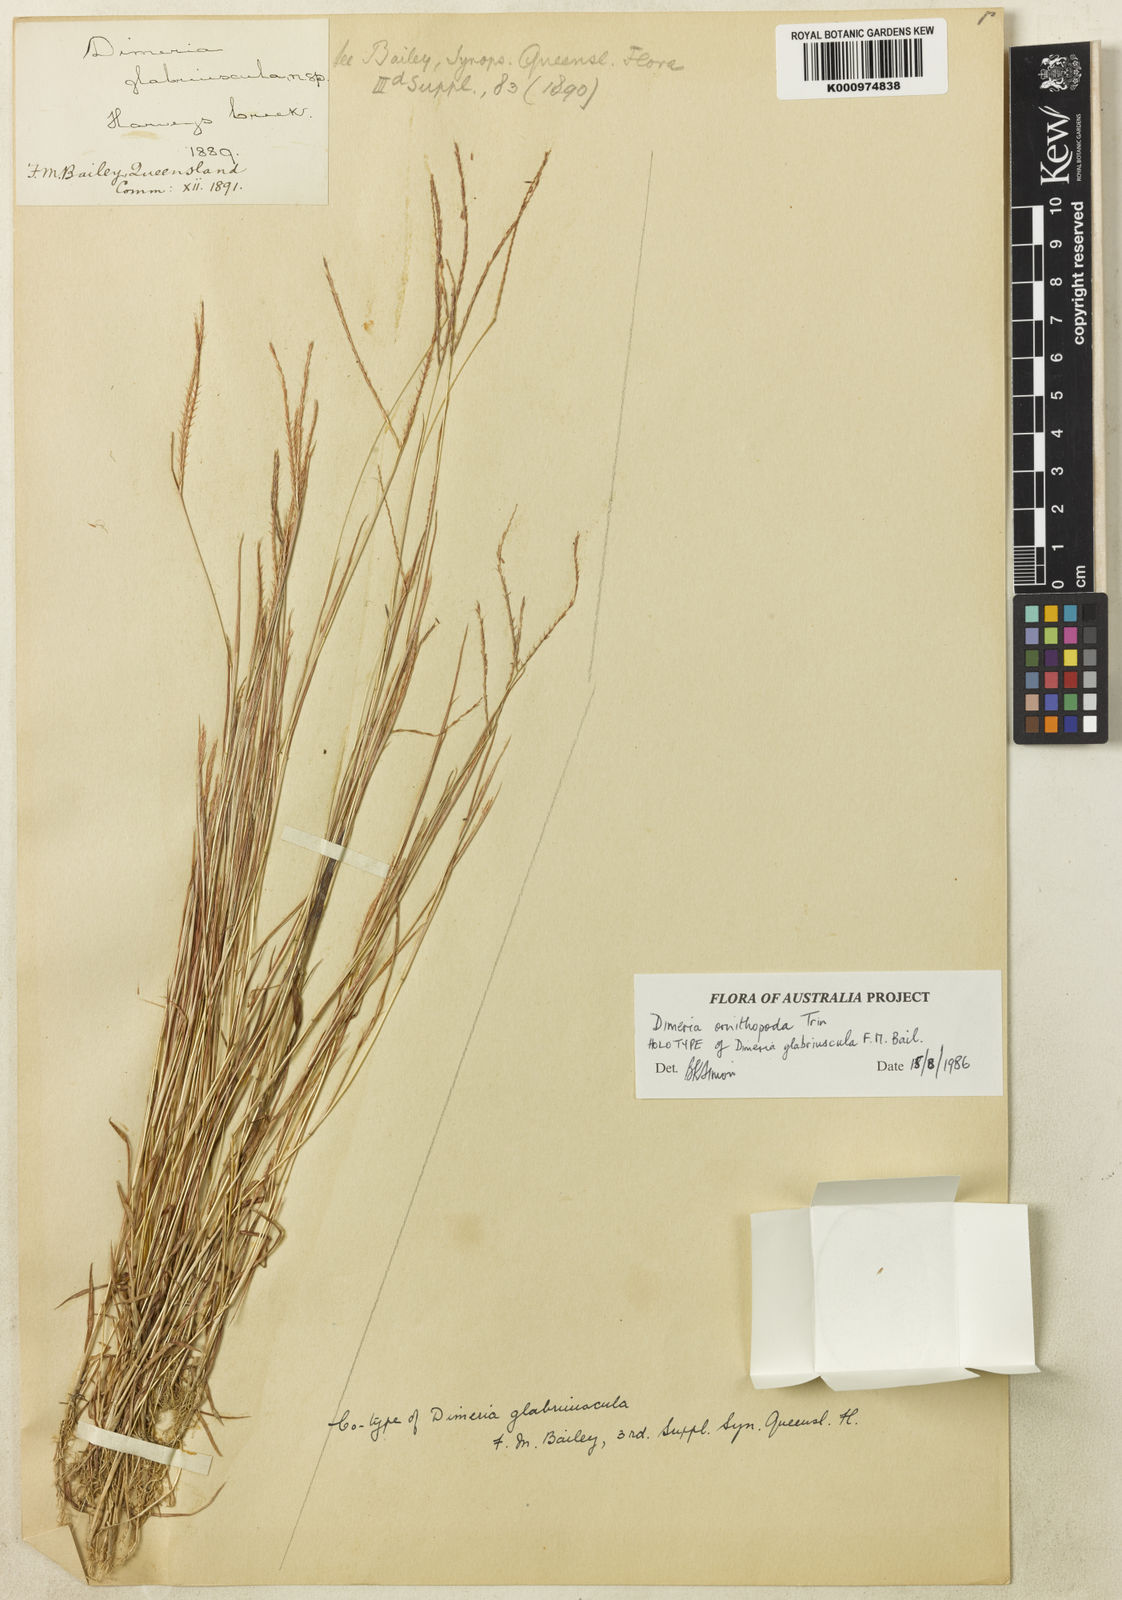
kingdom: Plantae
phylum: Tracheophyta
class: Liliopsida
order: Poales
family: Poaceae
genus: Dimeria
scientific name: Dimeria ornithopoda
